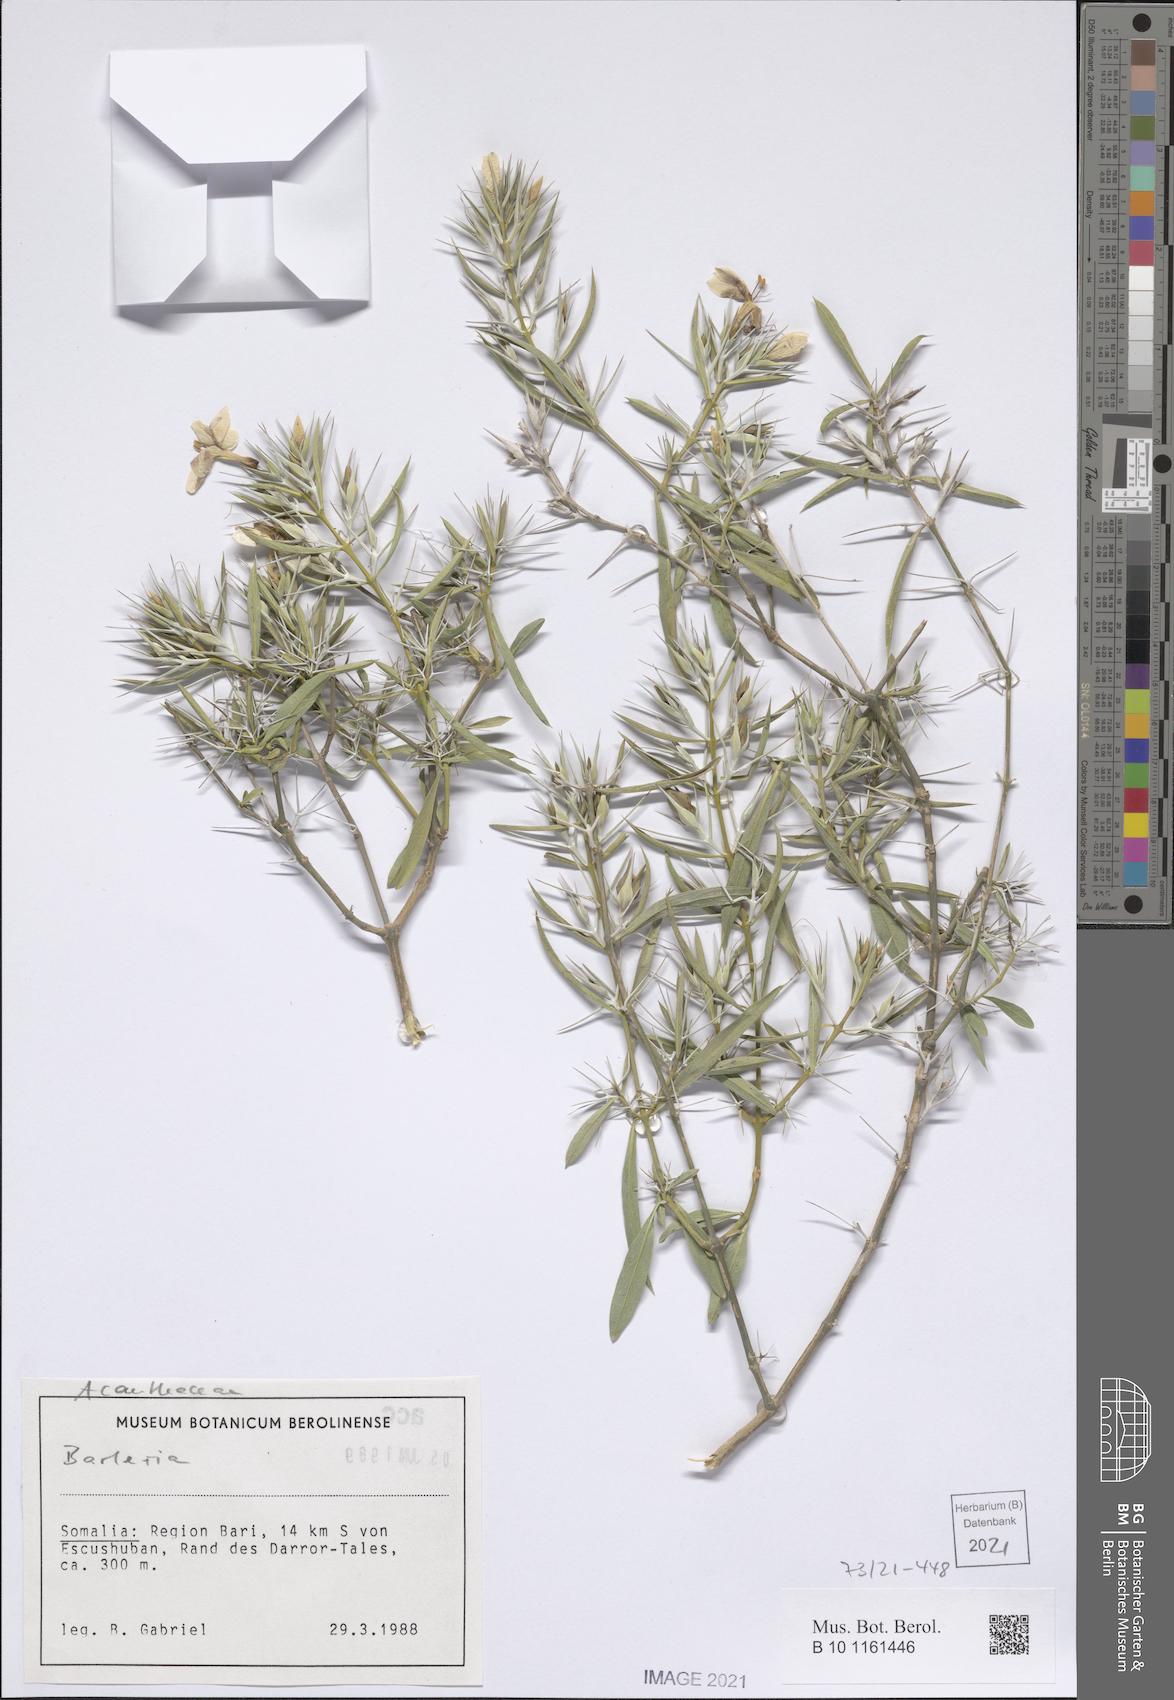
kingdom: Plantae
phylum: Tracheophyta
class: Magnoliopsida
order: Lamiales
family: Acanthaceae
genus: Barleria
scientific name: Barleria brevispina
